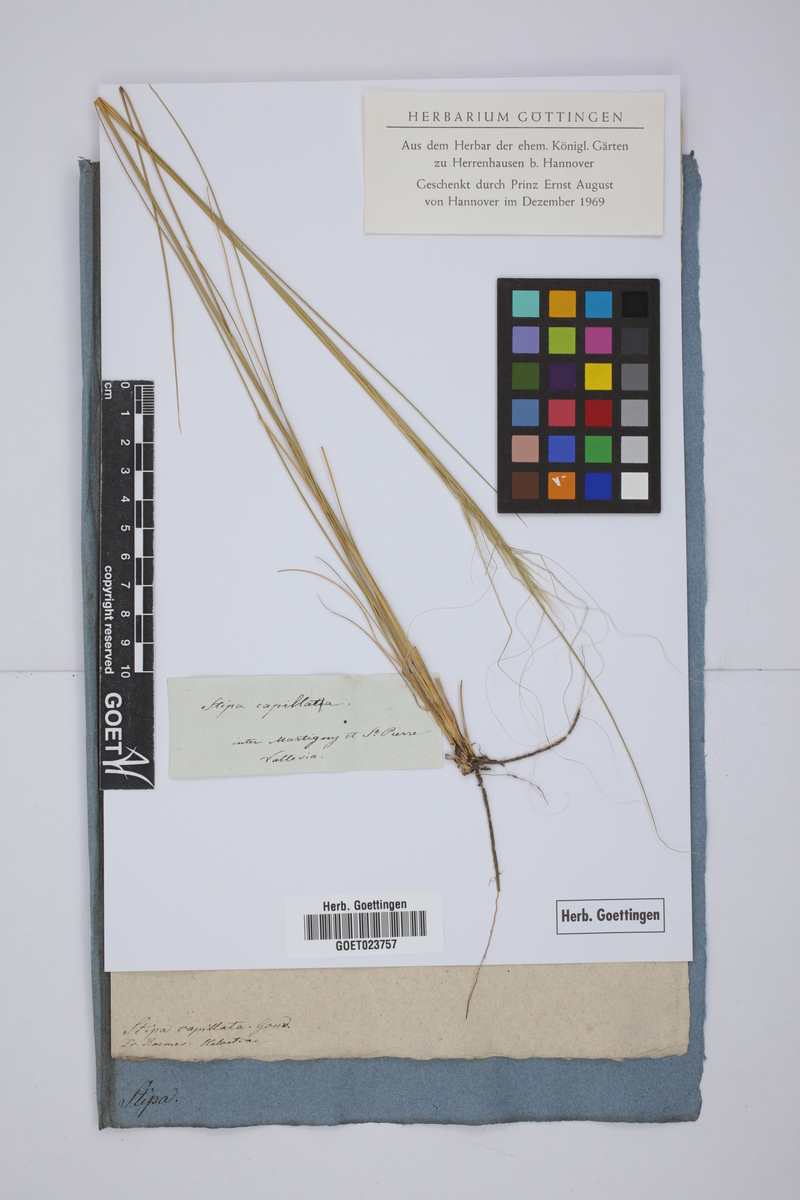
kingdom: Plantae
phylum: Tracheophyta
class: Liliopsida
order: Poales
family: Poaceae
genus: Stipa
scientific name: Stipa capillata
